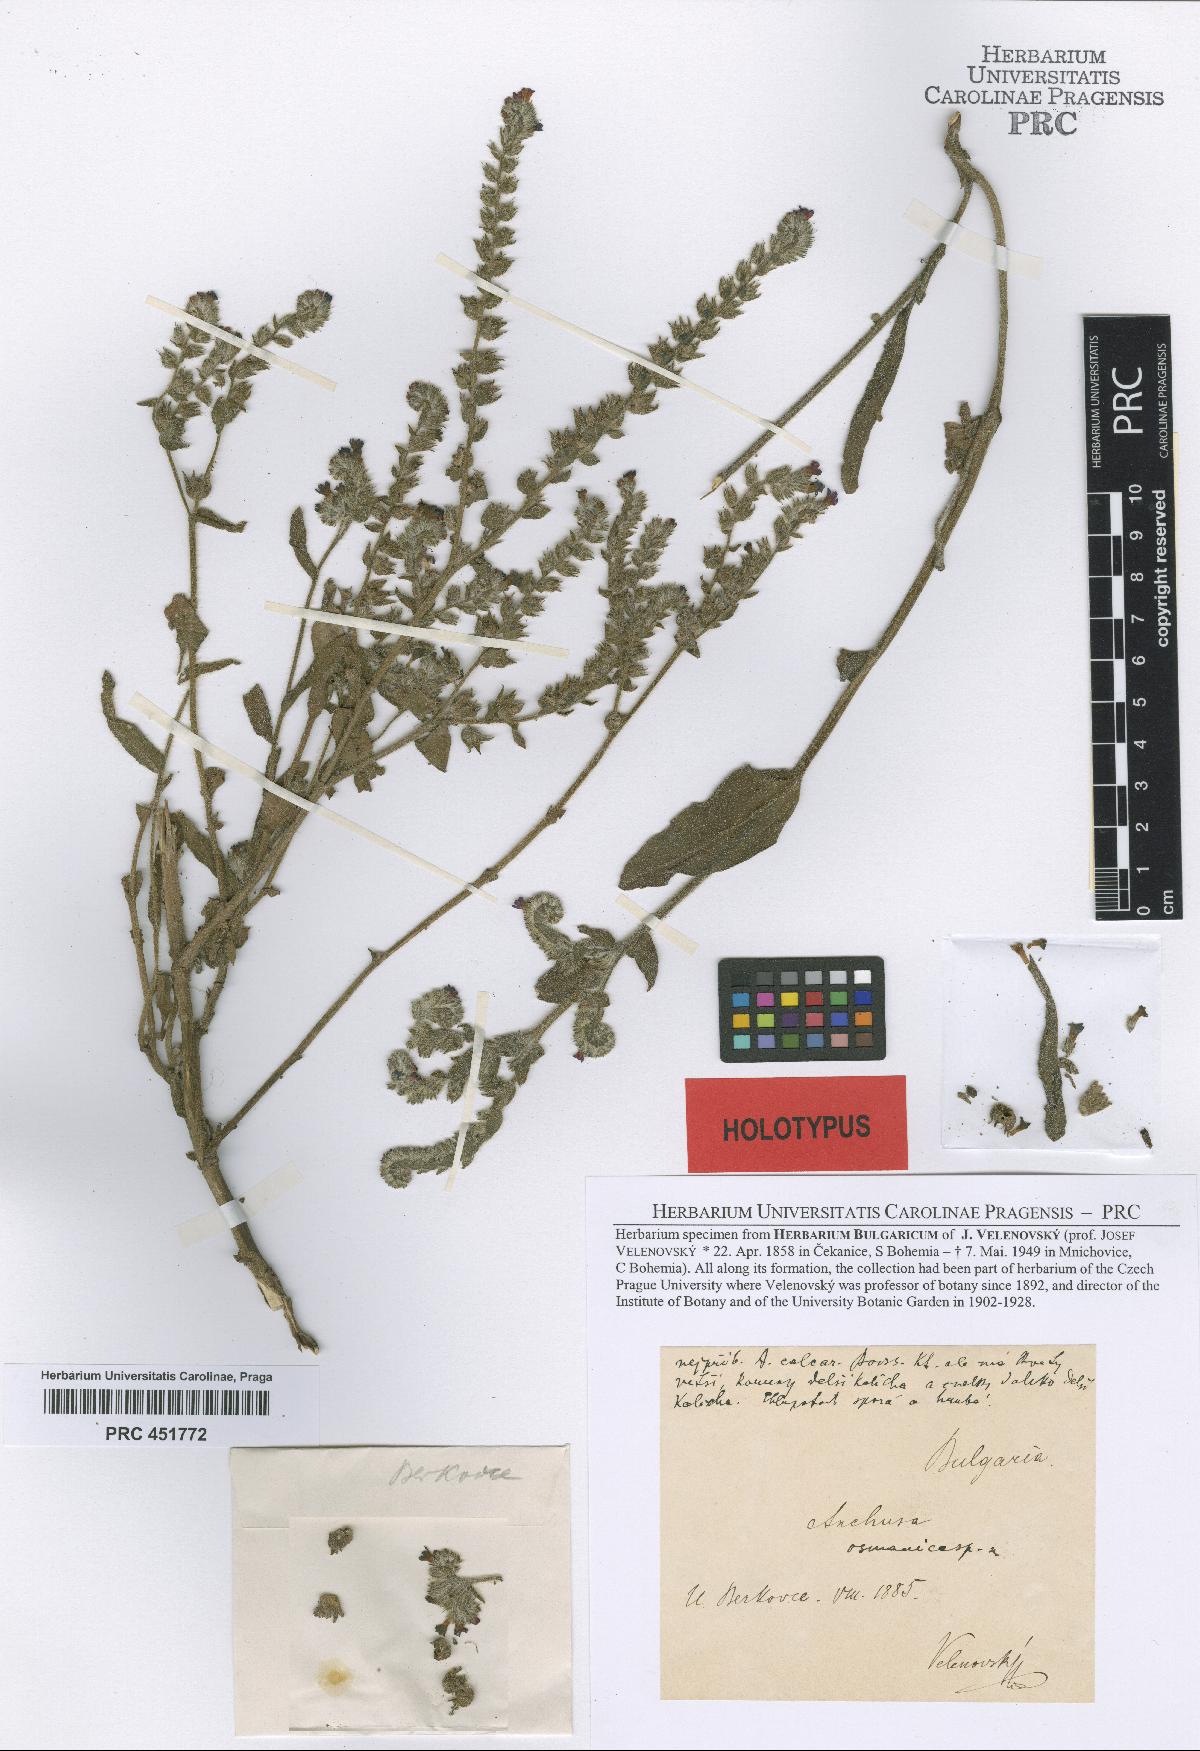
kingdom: Plantae
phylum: Tracheophyta
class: Magnoliopsida
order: Boraginales
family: Boraginaceae
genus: Anchusa
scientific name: Anchusa officinalis
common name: Alkanet
